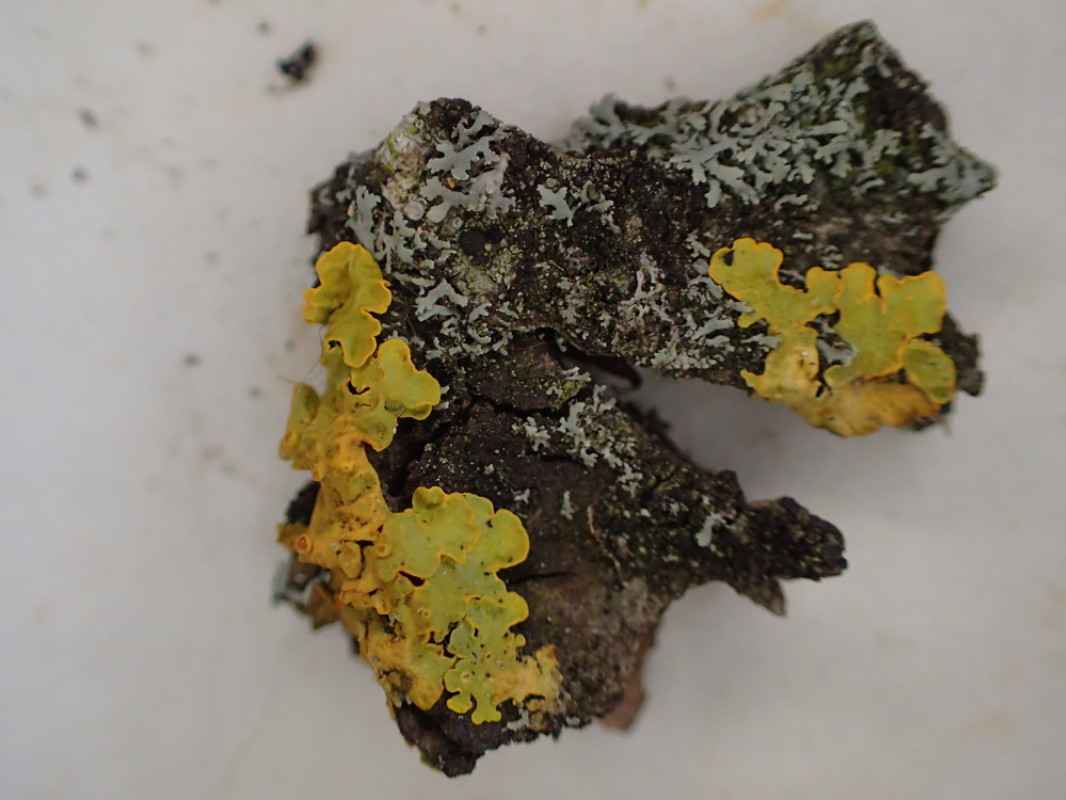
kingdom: Fungi
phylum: Ascomycota
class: Lecanoromycetes
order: Teloschistales
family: Teloschistaceae
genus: Xanthoria
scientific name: Xanthoria parietina
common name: almindelig væggelav
